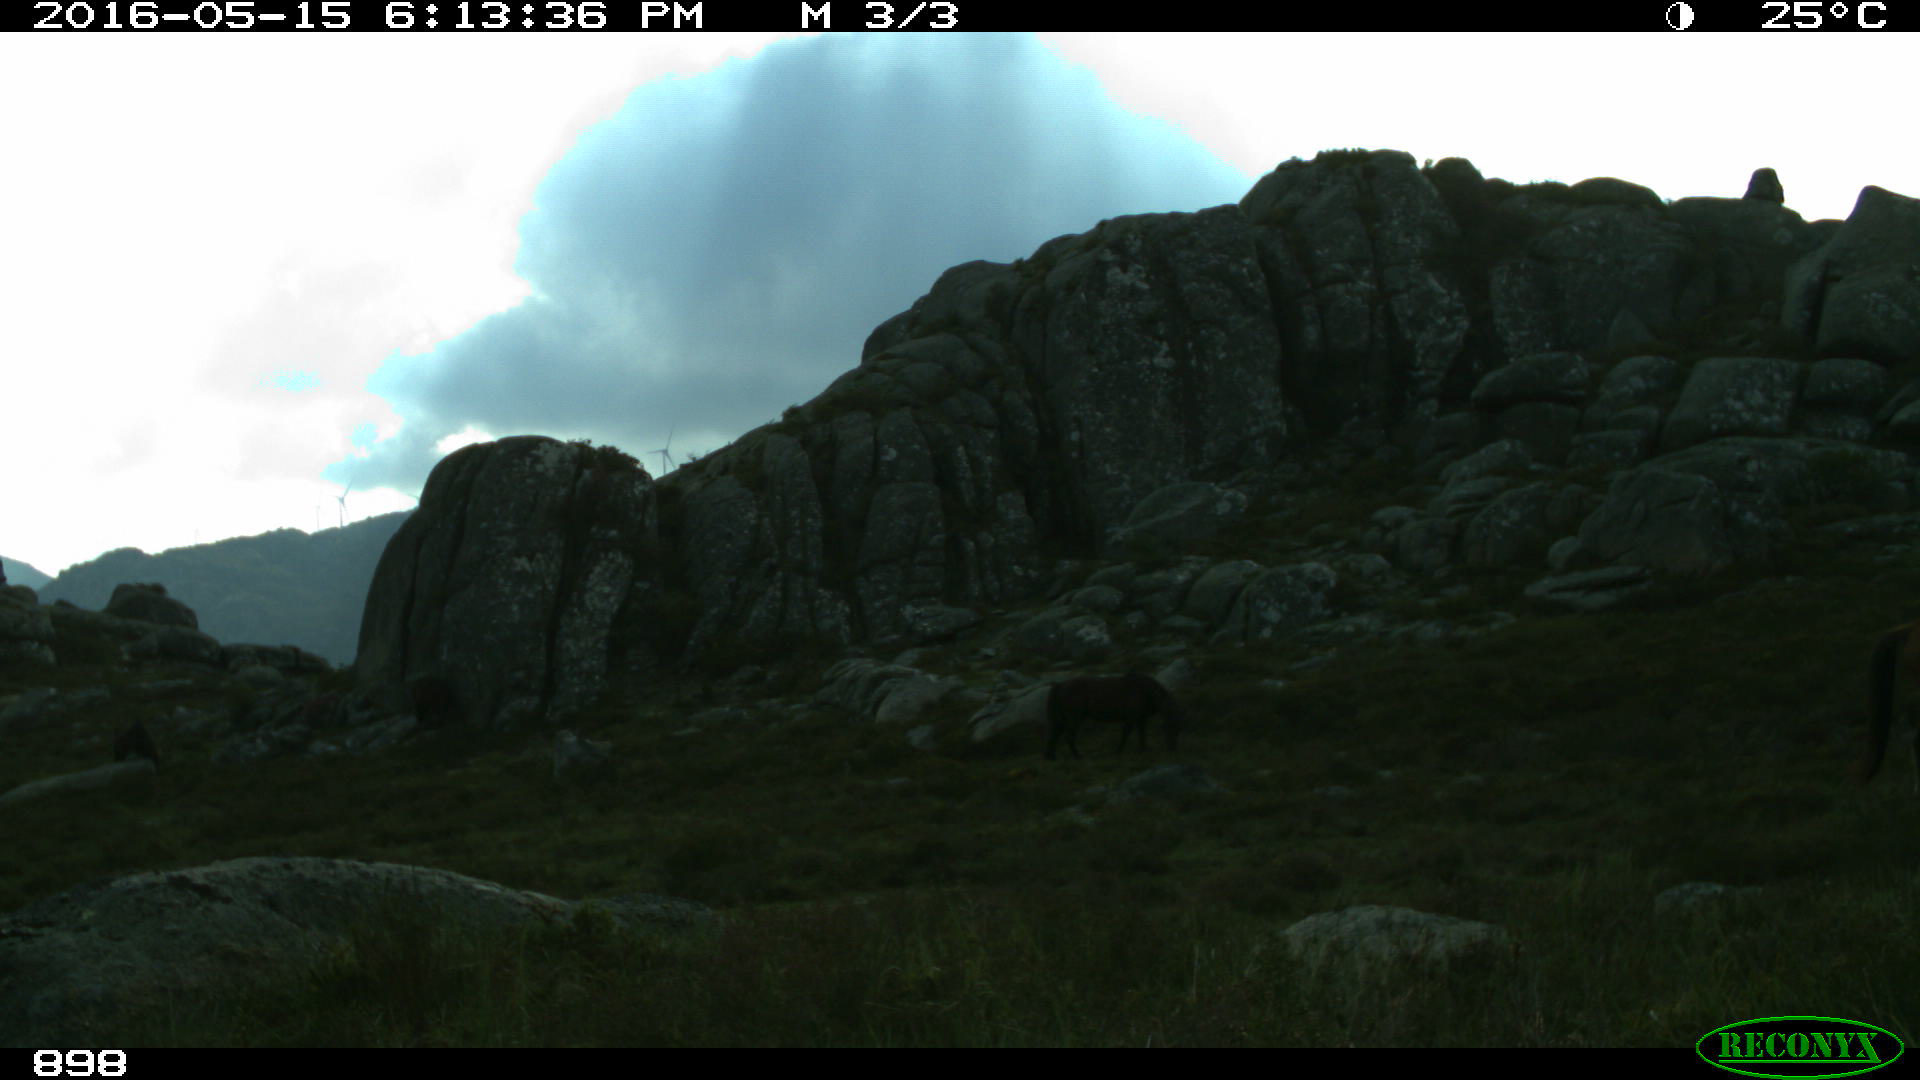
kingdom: Animalia
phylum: Chordata
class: Mammalia
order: Perissodactyla
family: Equidae
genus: Equus
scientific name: Equus caballus
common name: Horse
